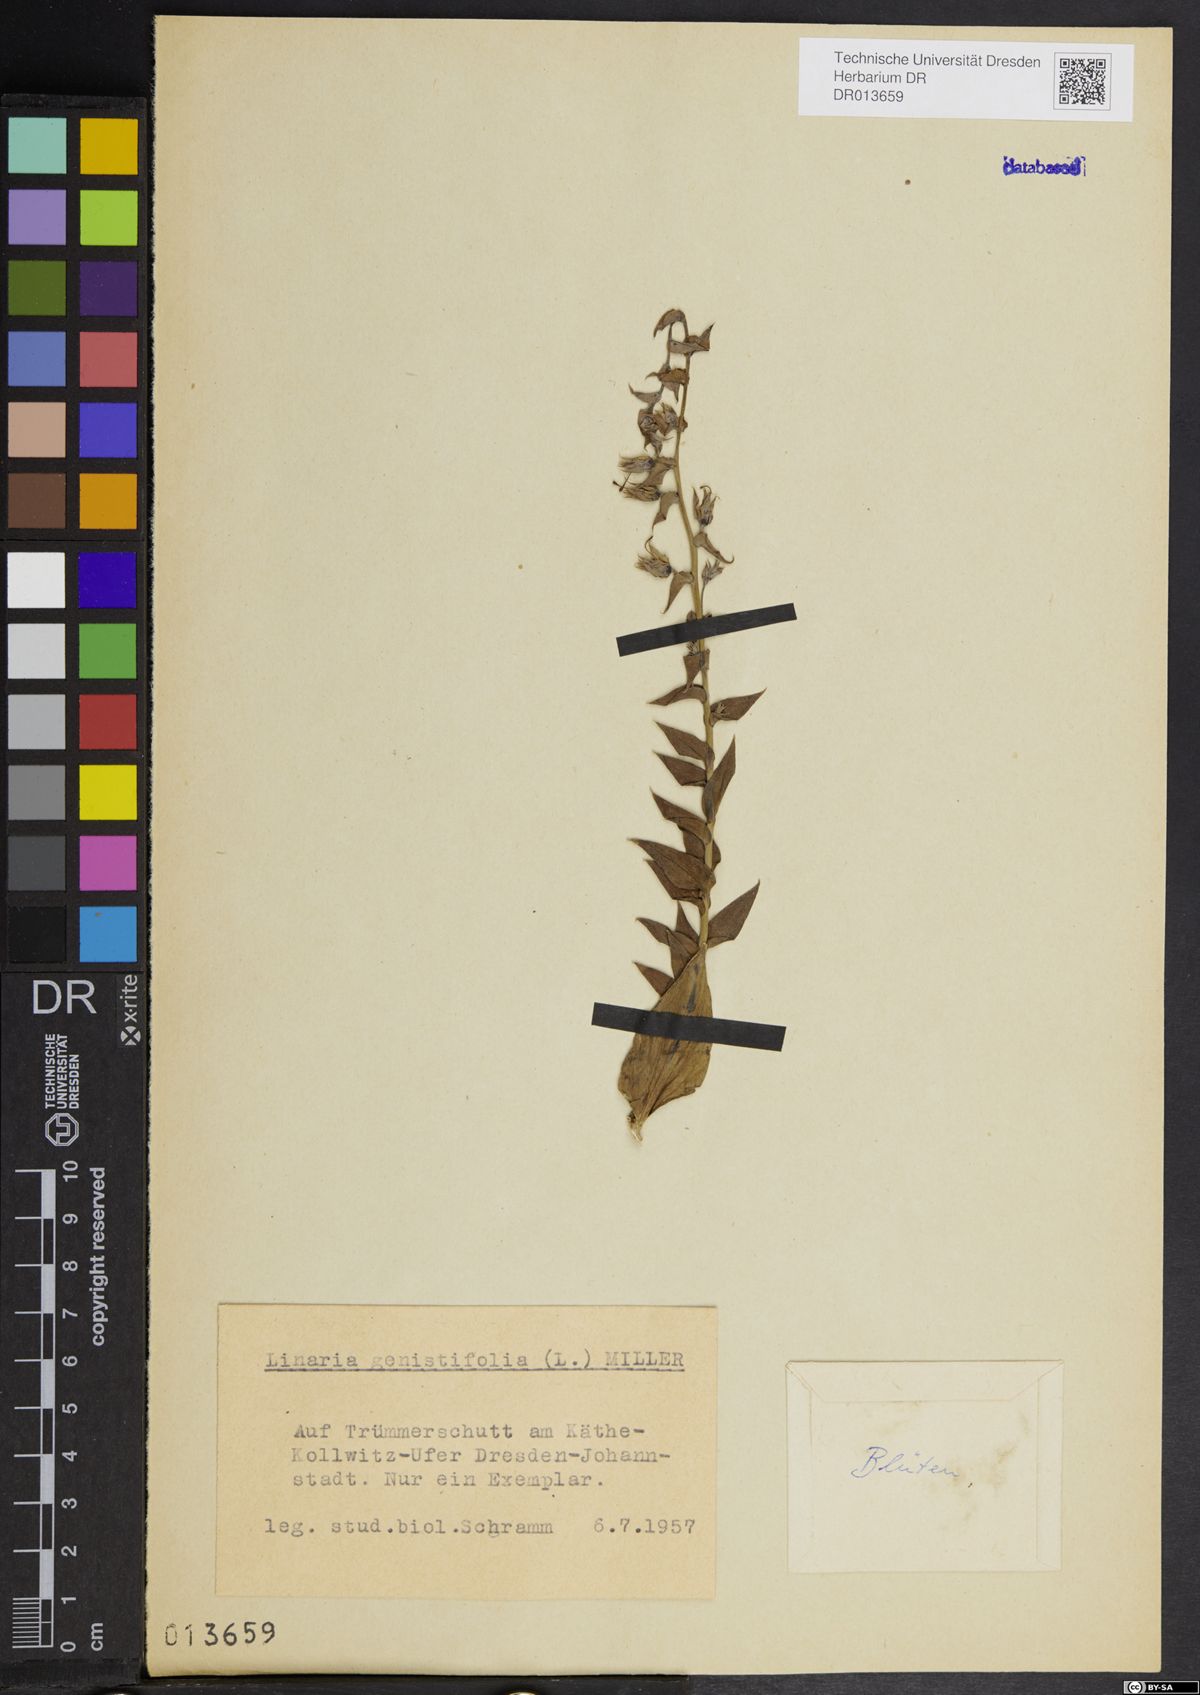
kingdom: Plantae
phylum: Tracheophyta
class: Magnoliopsida
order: Lamiales
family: Plantaginaceae
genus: Linaria
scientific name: Linaria genistifolia
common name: Broomleaf toadflax
